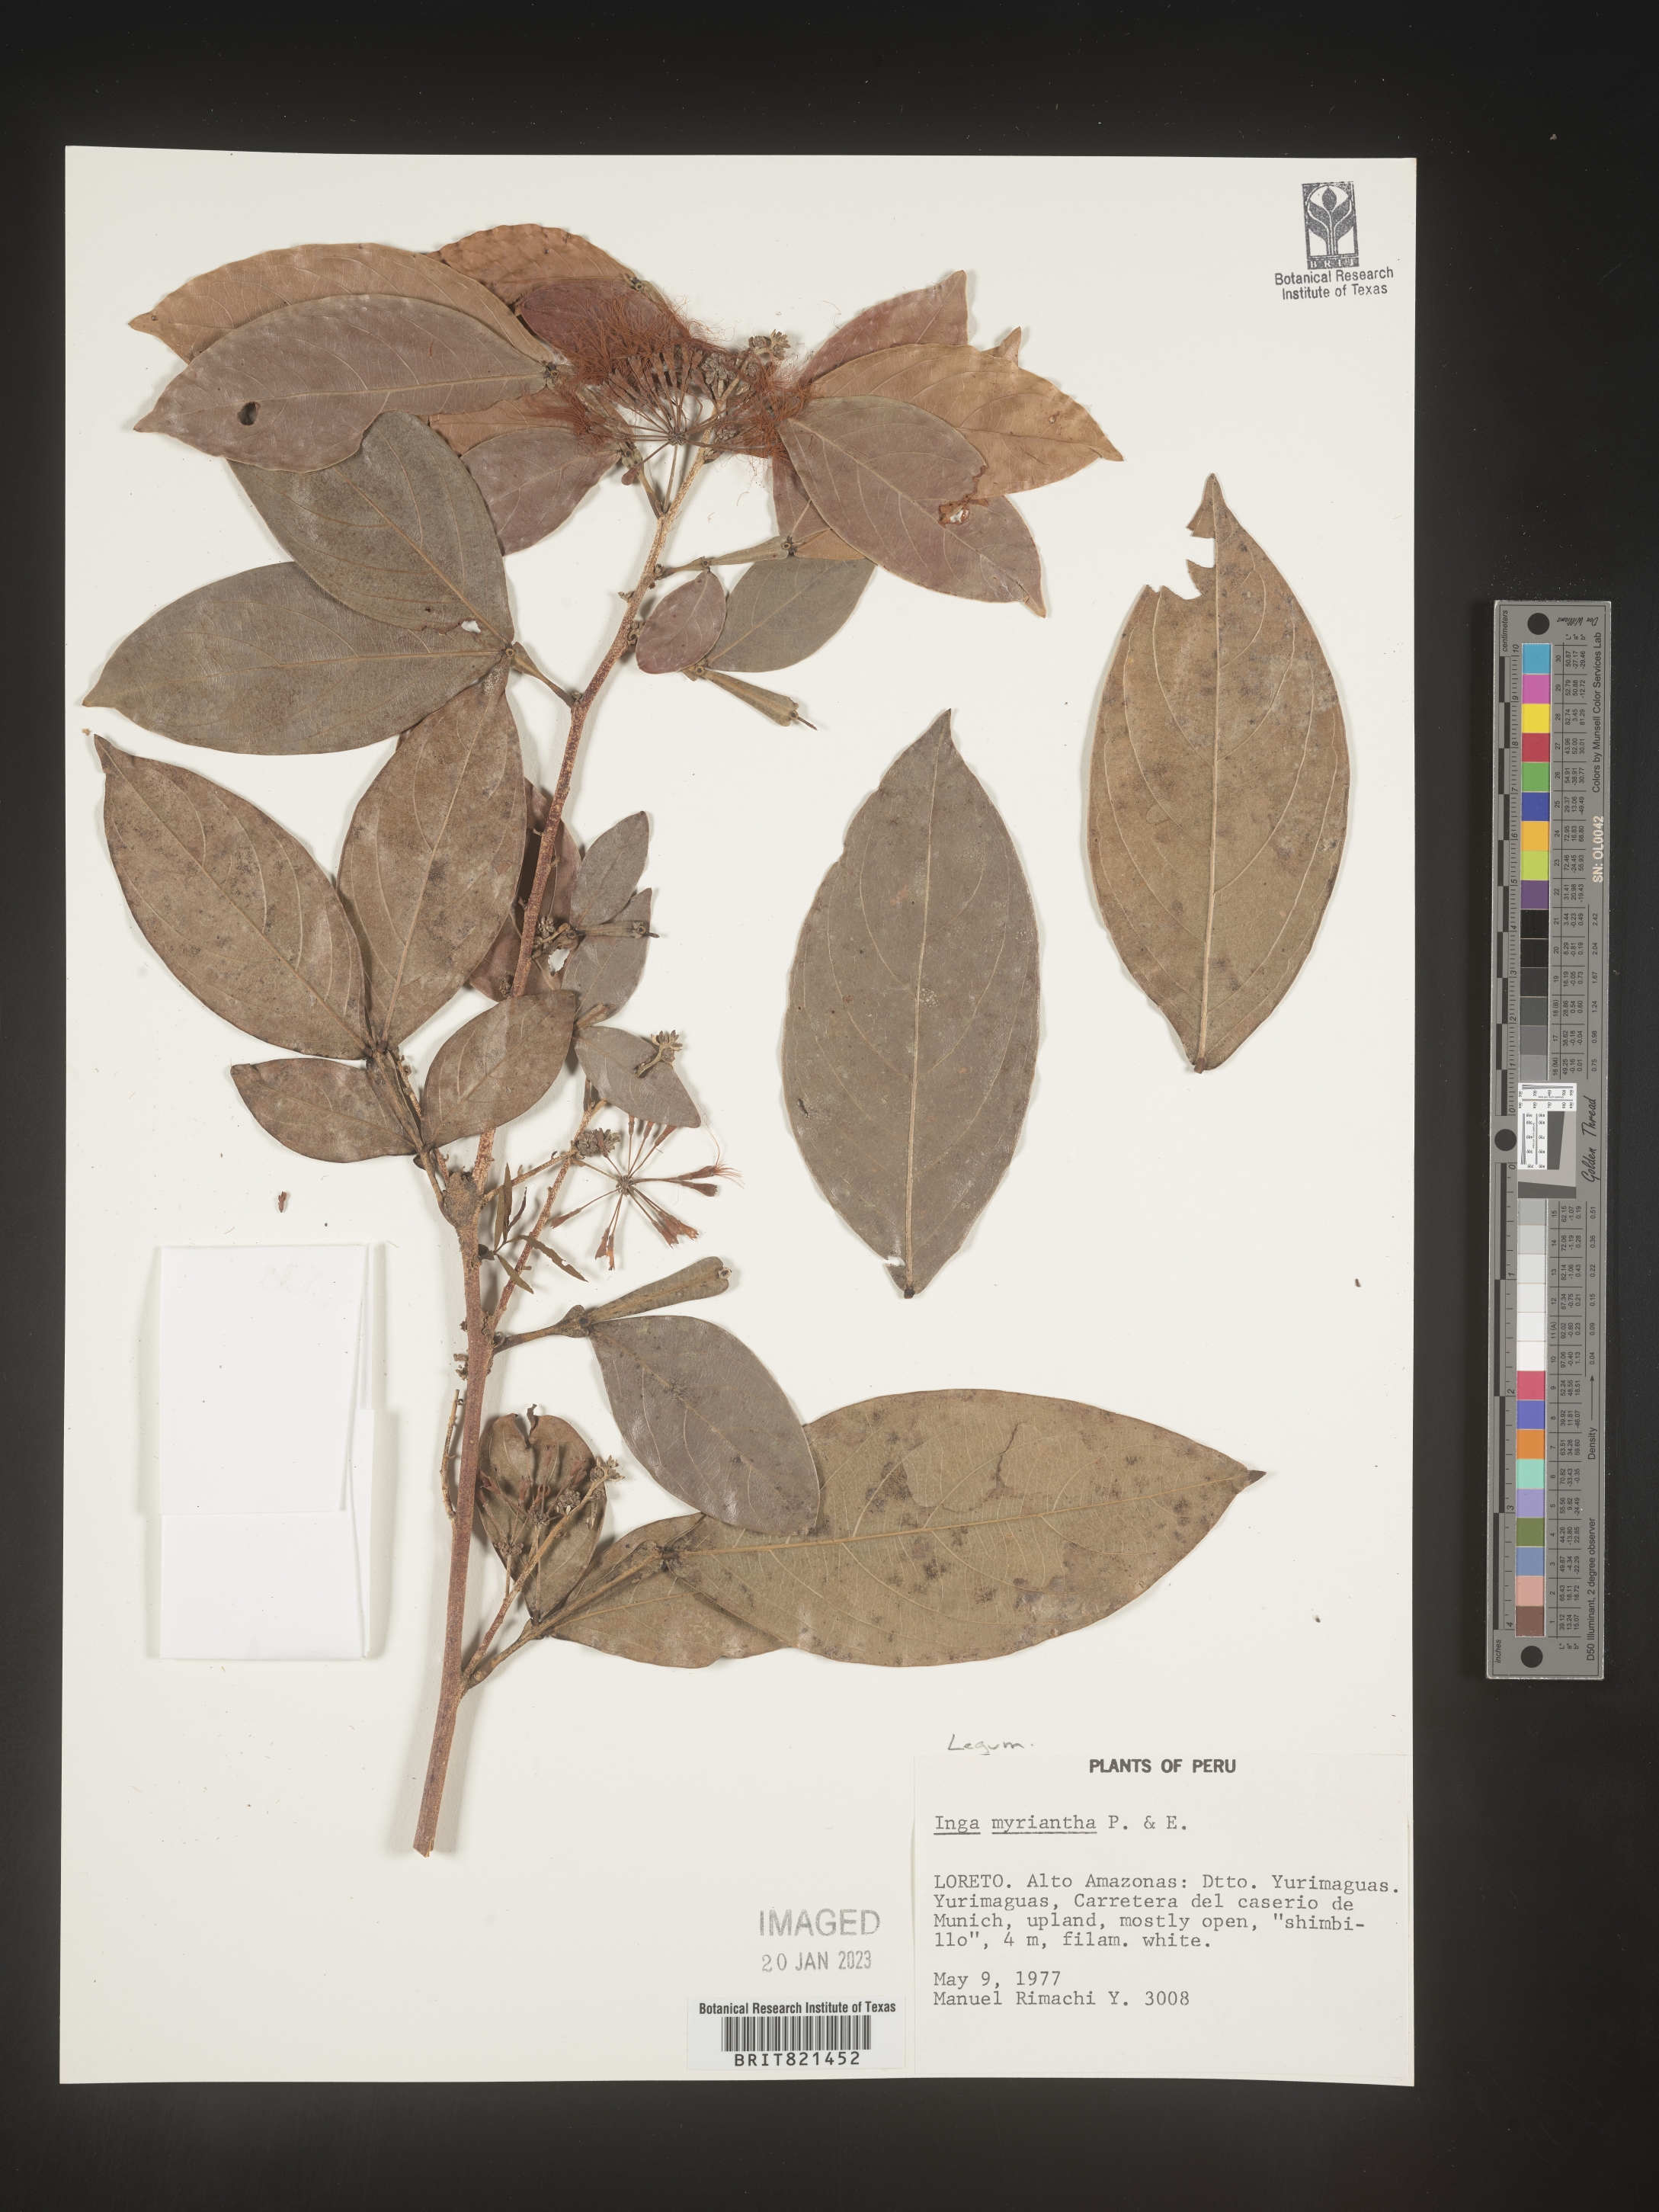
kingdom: Plantae
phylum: Tracheophyta
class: Magnoliopsida
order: Fabales
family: Fabaceae
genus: Inga
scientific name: Inga
